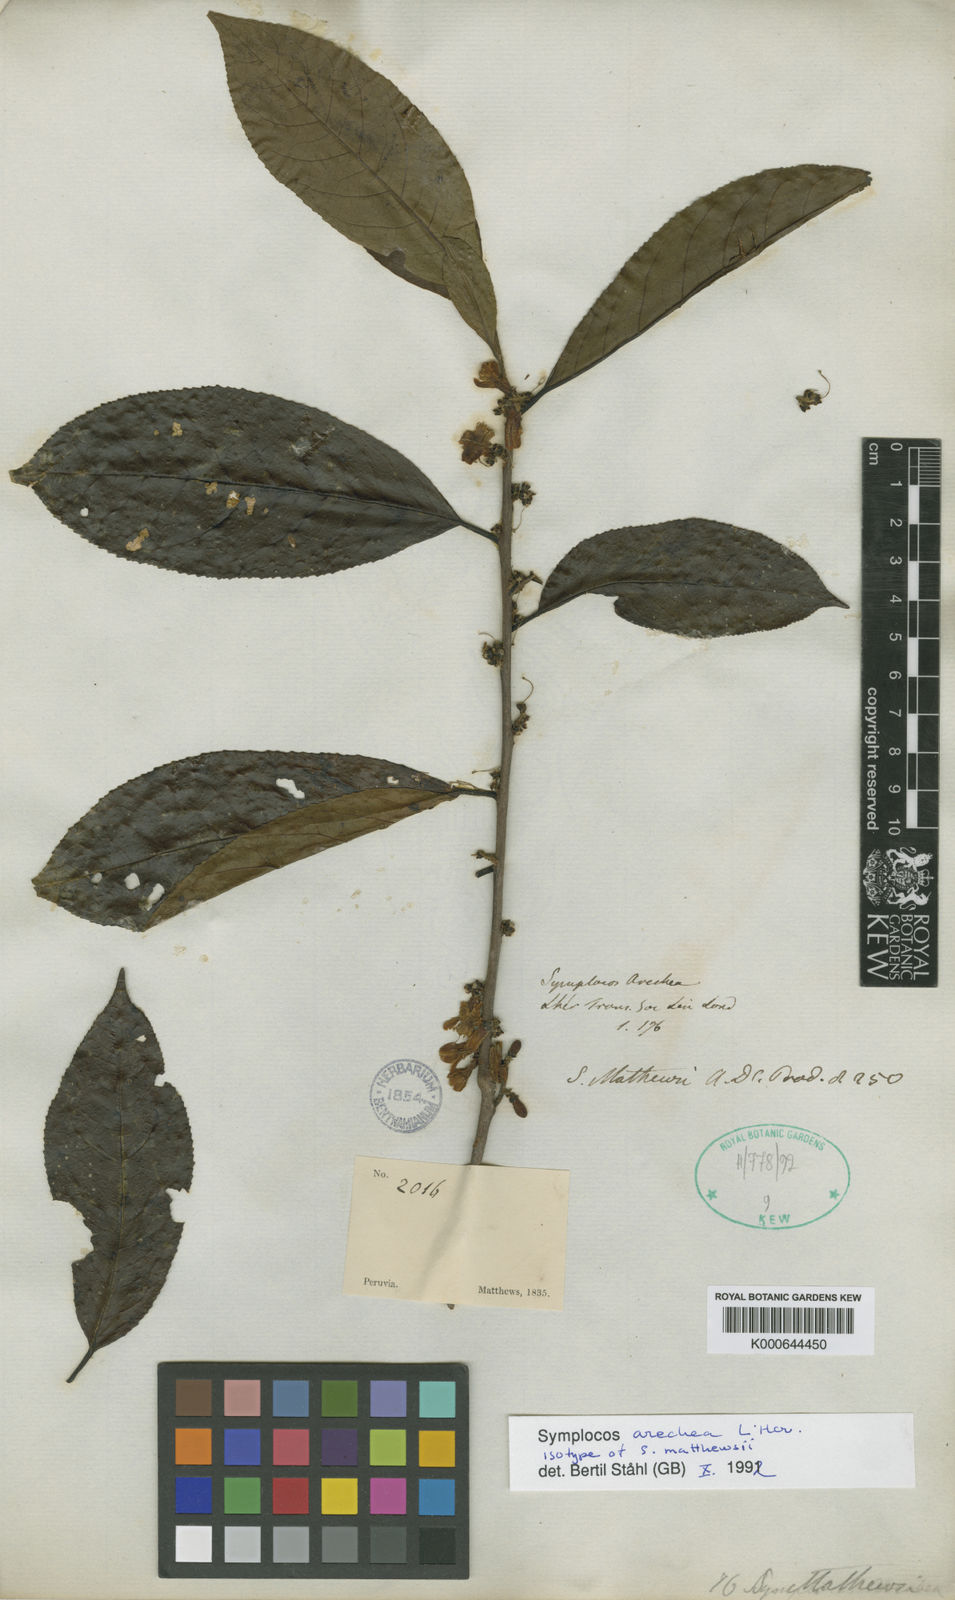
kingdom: Plantae
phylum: Tracheophyta
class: Magnoliopsida
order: Ericales
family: Symplocaceae
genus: Symplocos
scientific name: Symplocos
